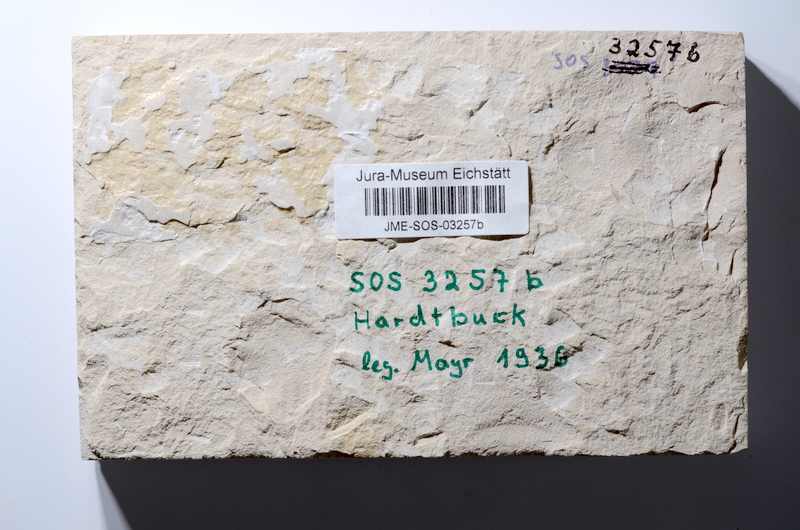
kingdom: Animalia
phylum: Chordata
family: Macrosemiidae
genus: Macrosemius
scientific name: Macrosemius rostratus
